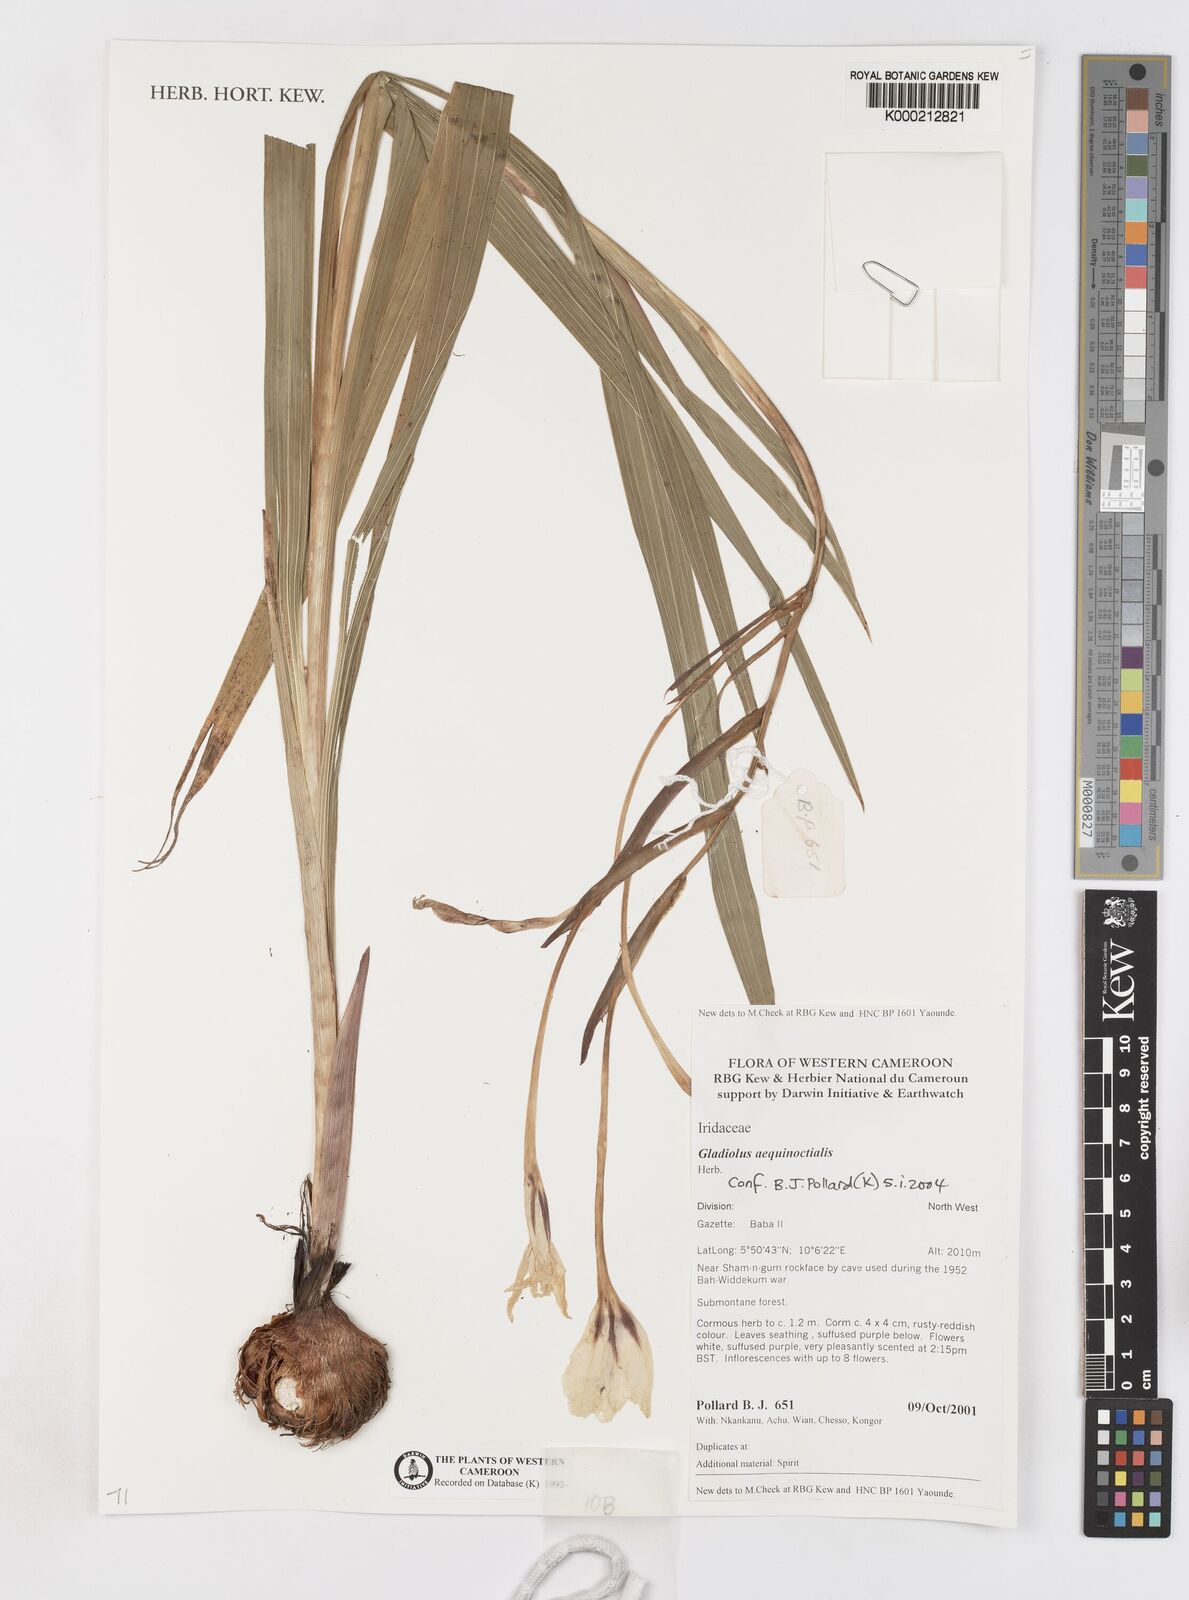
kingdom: Plantae
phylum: Tracheophyta
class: Liliopsida
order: Asparagales
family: Iridaceae
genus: Gladiolus
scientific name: Gladiolus aequinoctialis
